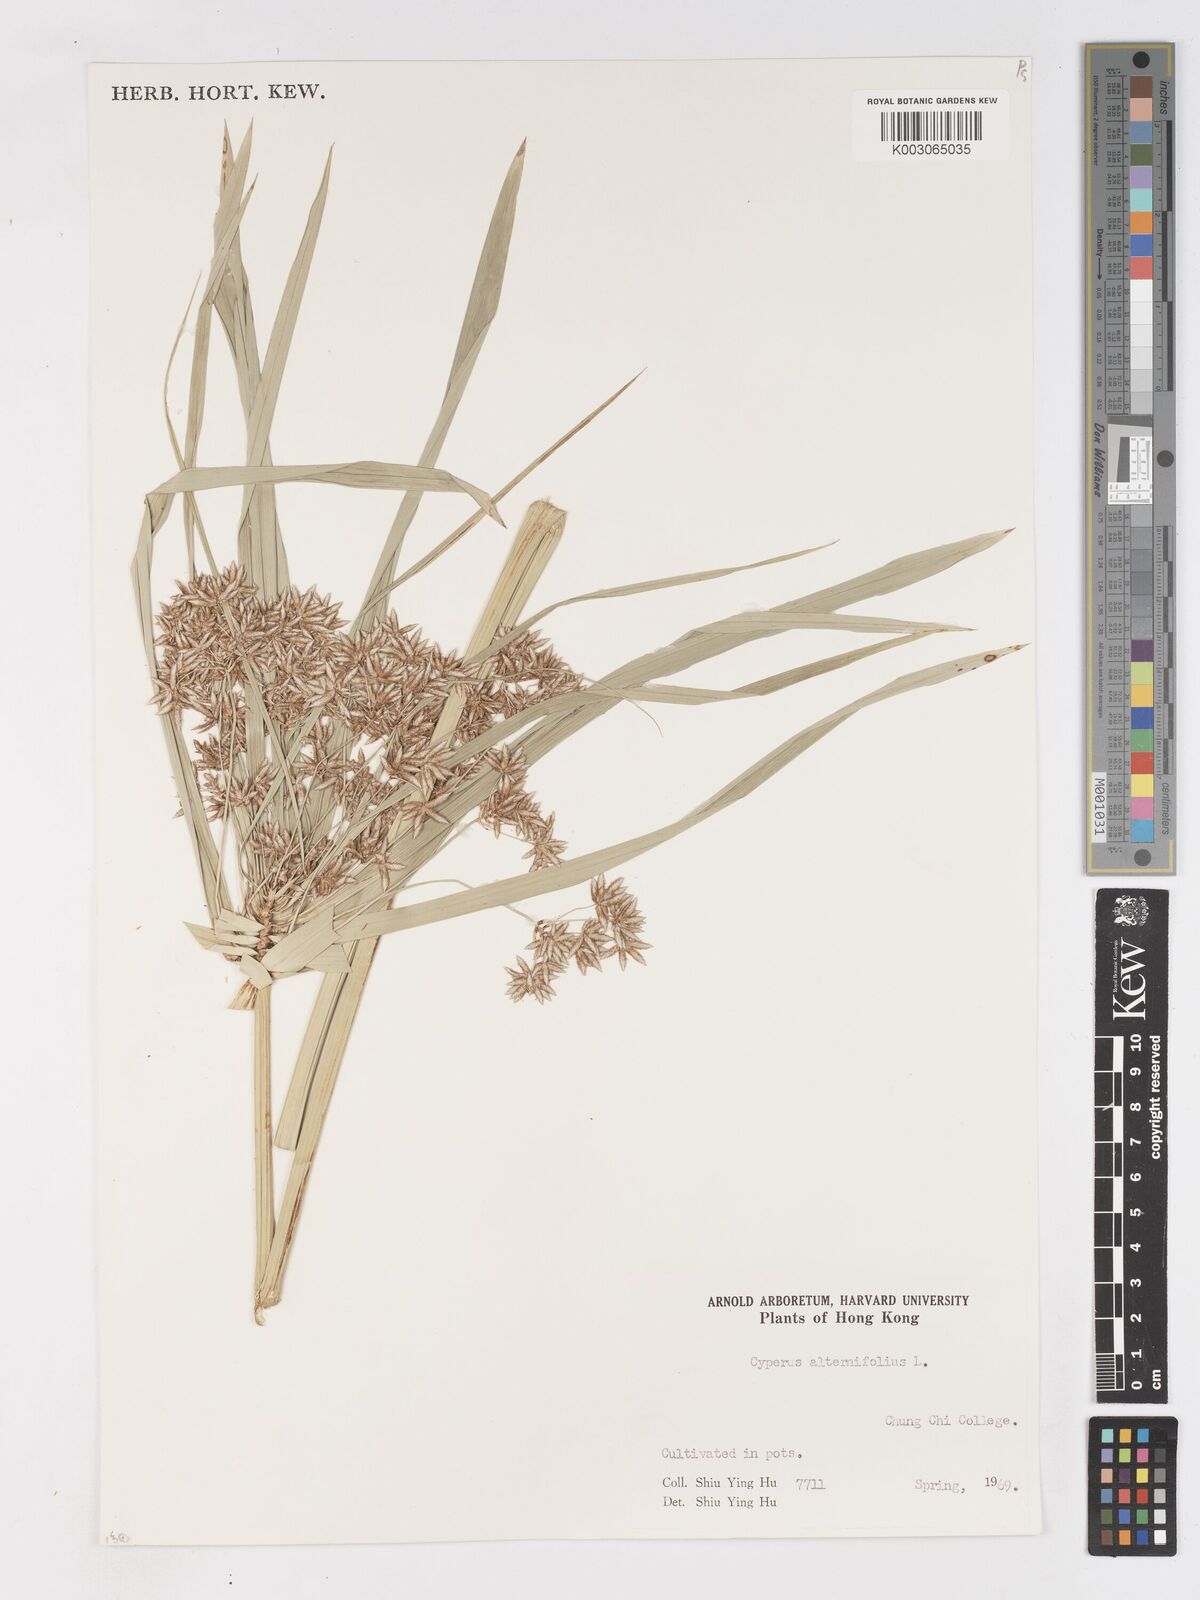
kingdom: Plantae
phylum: Tracheophyta
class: Liliopsida
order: Poales
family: Cyperaceae
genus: Cyperus
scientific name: Cyperus alternifolius
